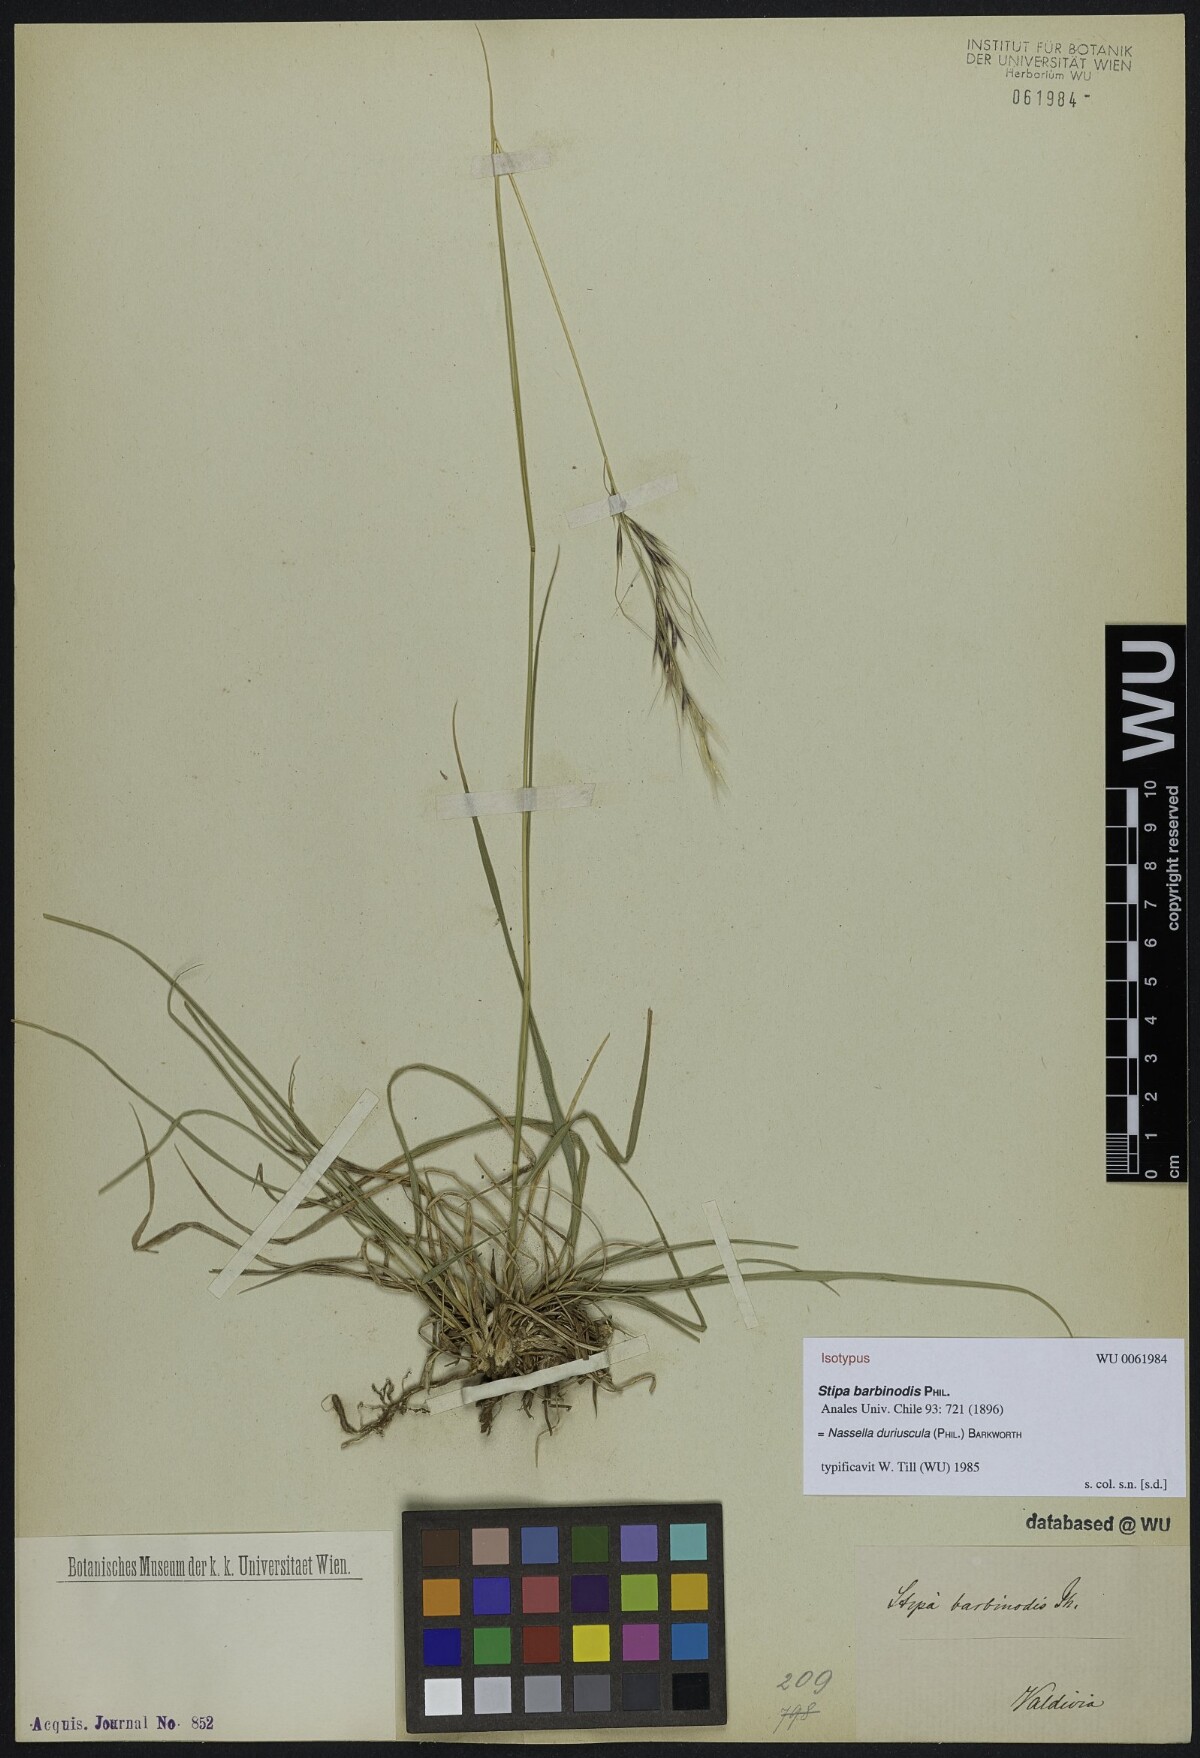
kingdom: Plantae
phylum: Tracheophyta
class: Liliopsida
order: Poales
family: Poaceae
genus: Nassella
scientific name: Nassella barbinodis
